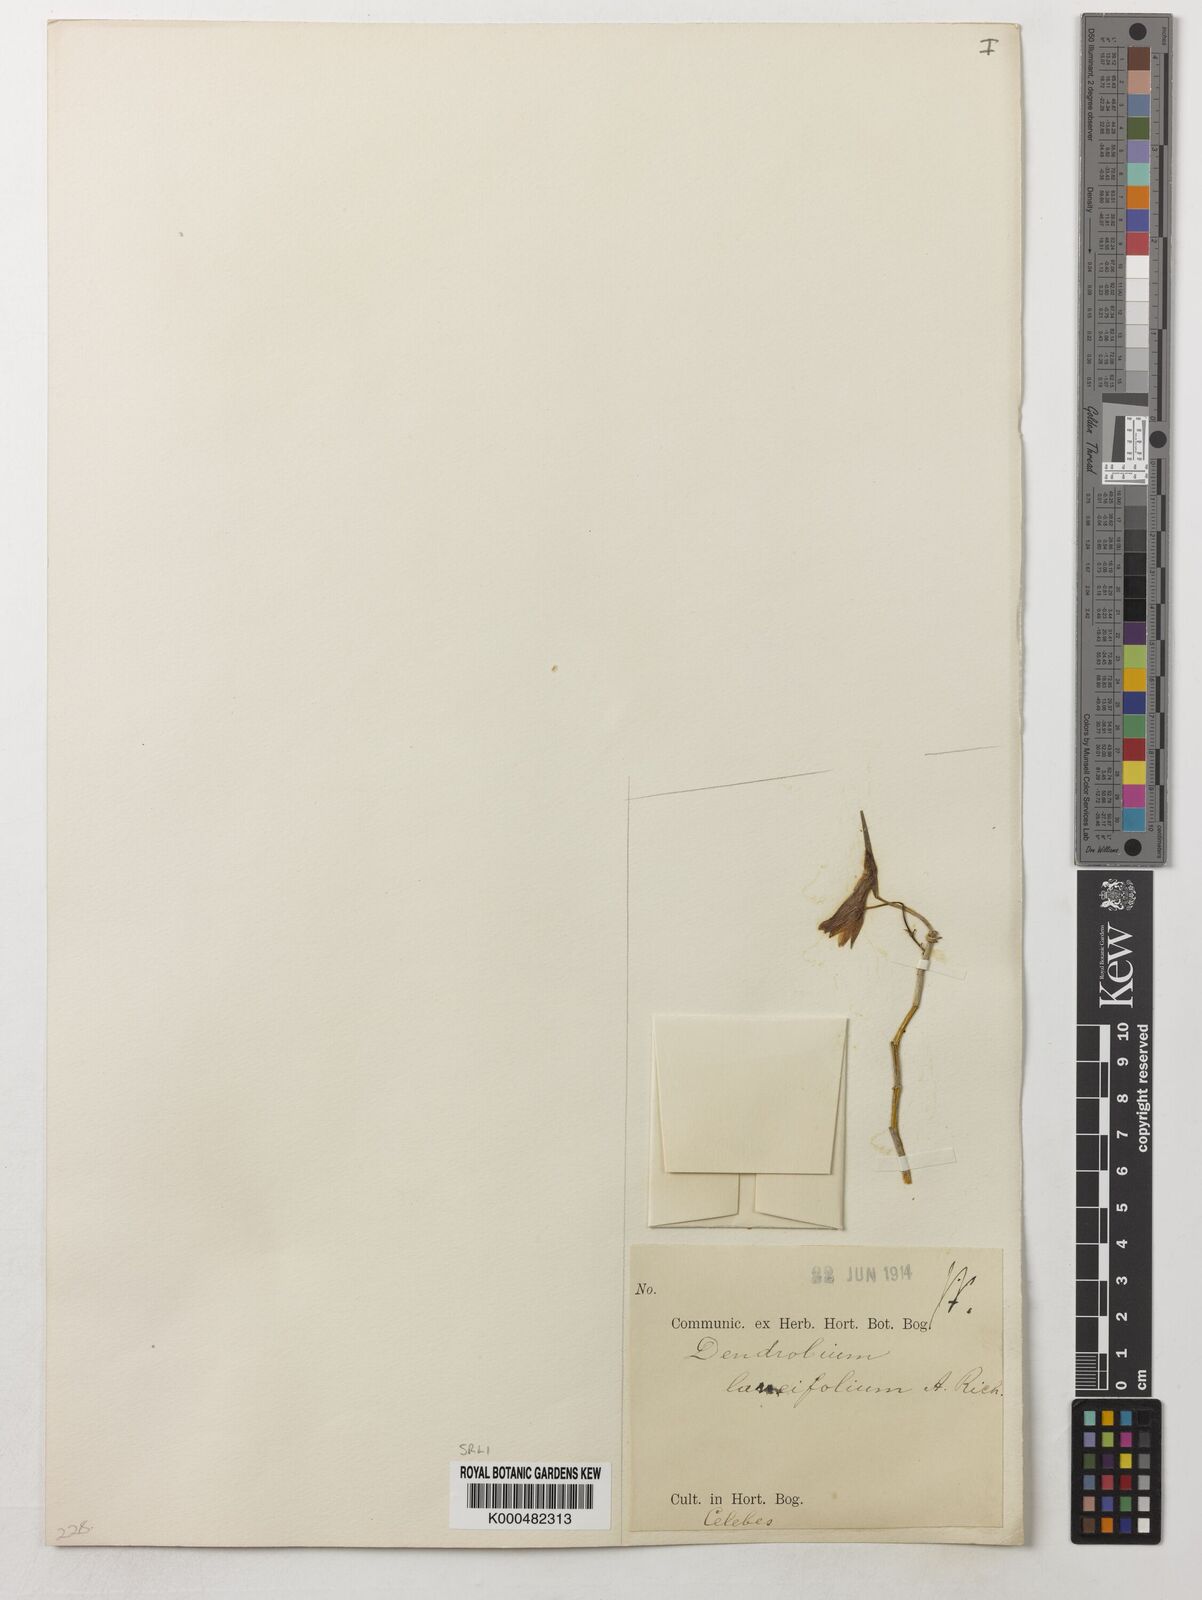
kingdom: Plantae
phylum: Tracheophyta
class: Liliopsida
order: Asparagales
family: Orchidaceae
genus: Dendrobium
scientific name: Dendrobium lanceolatum
